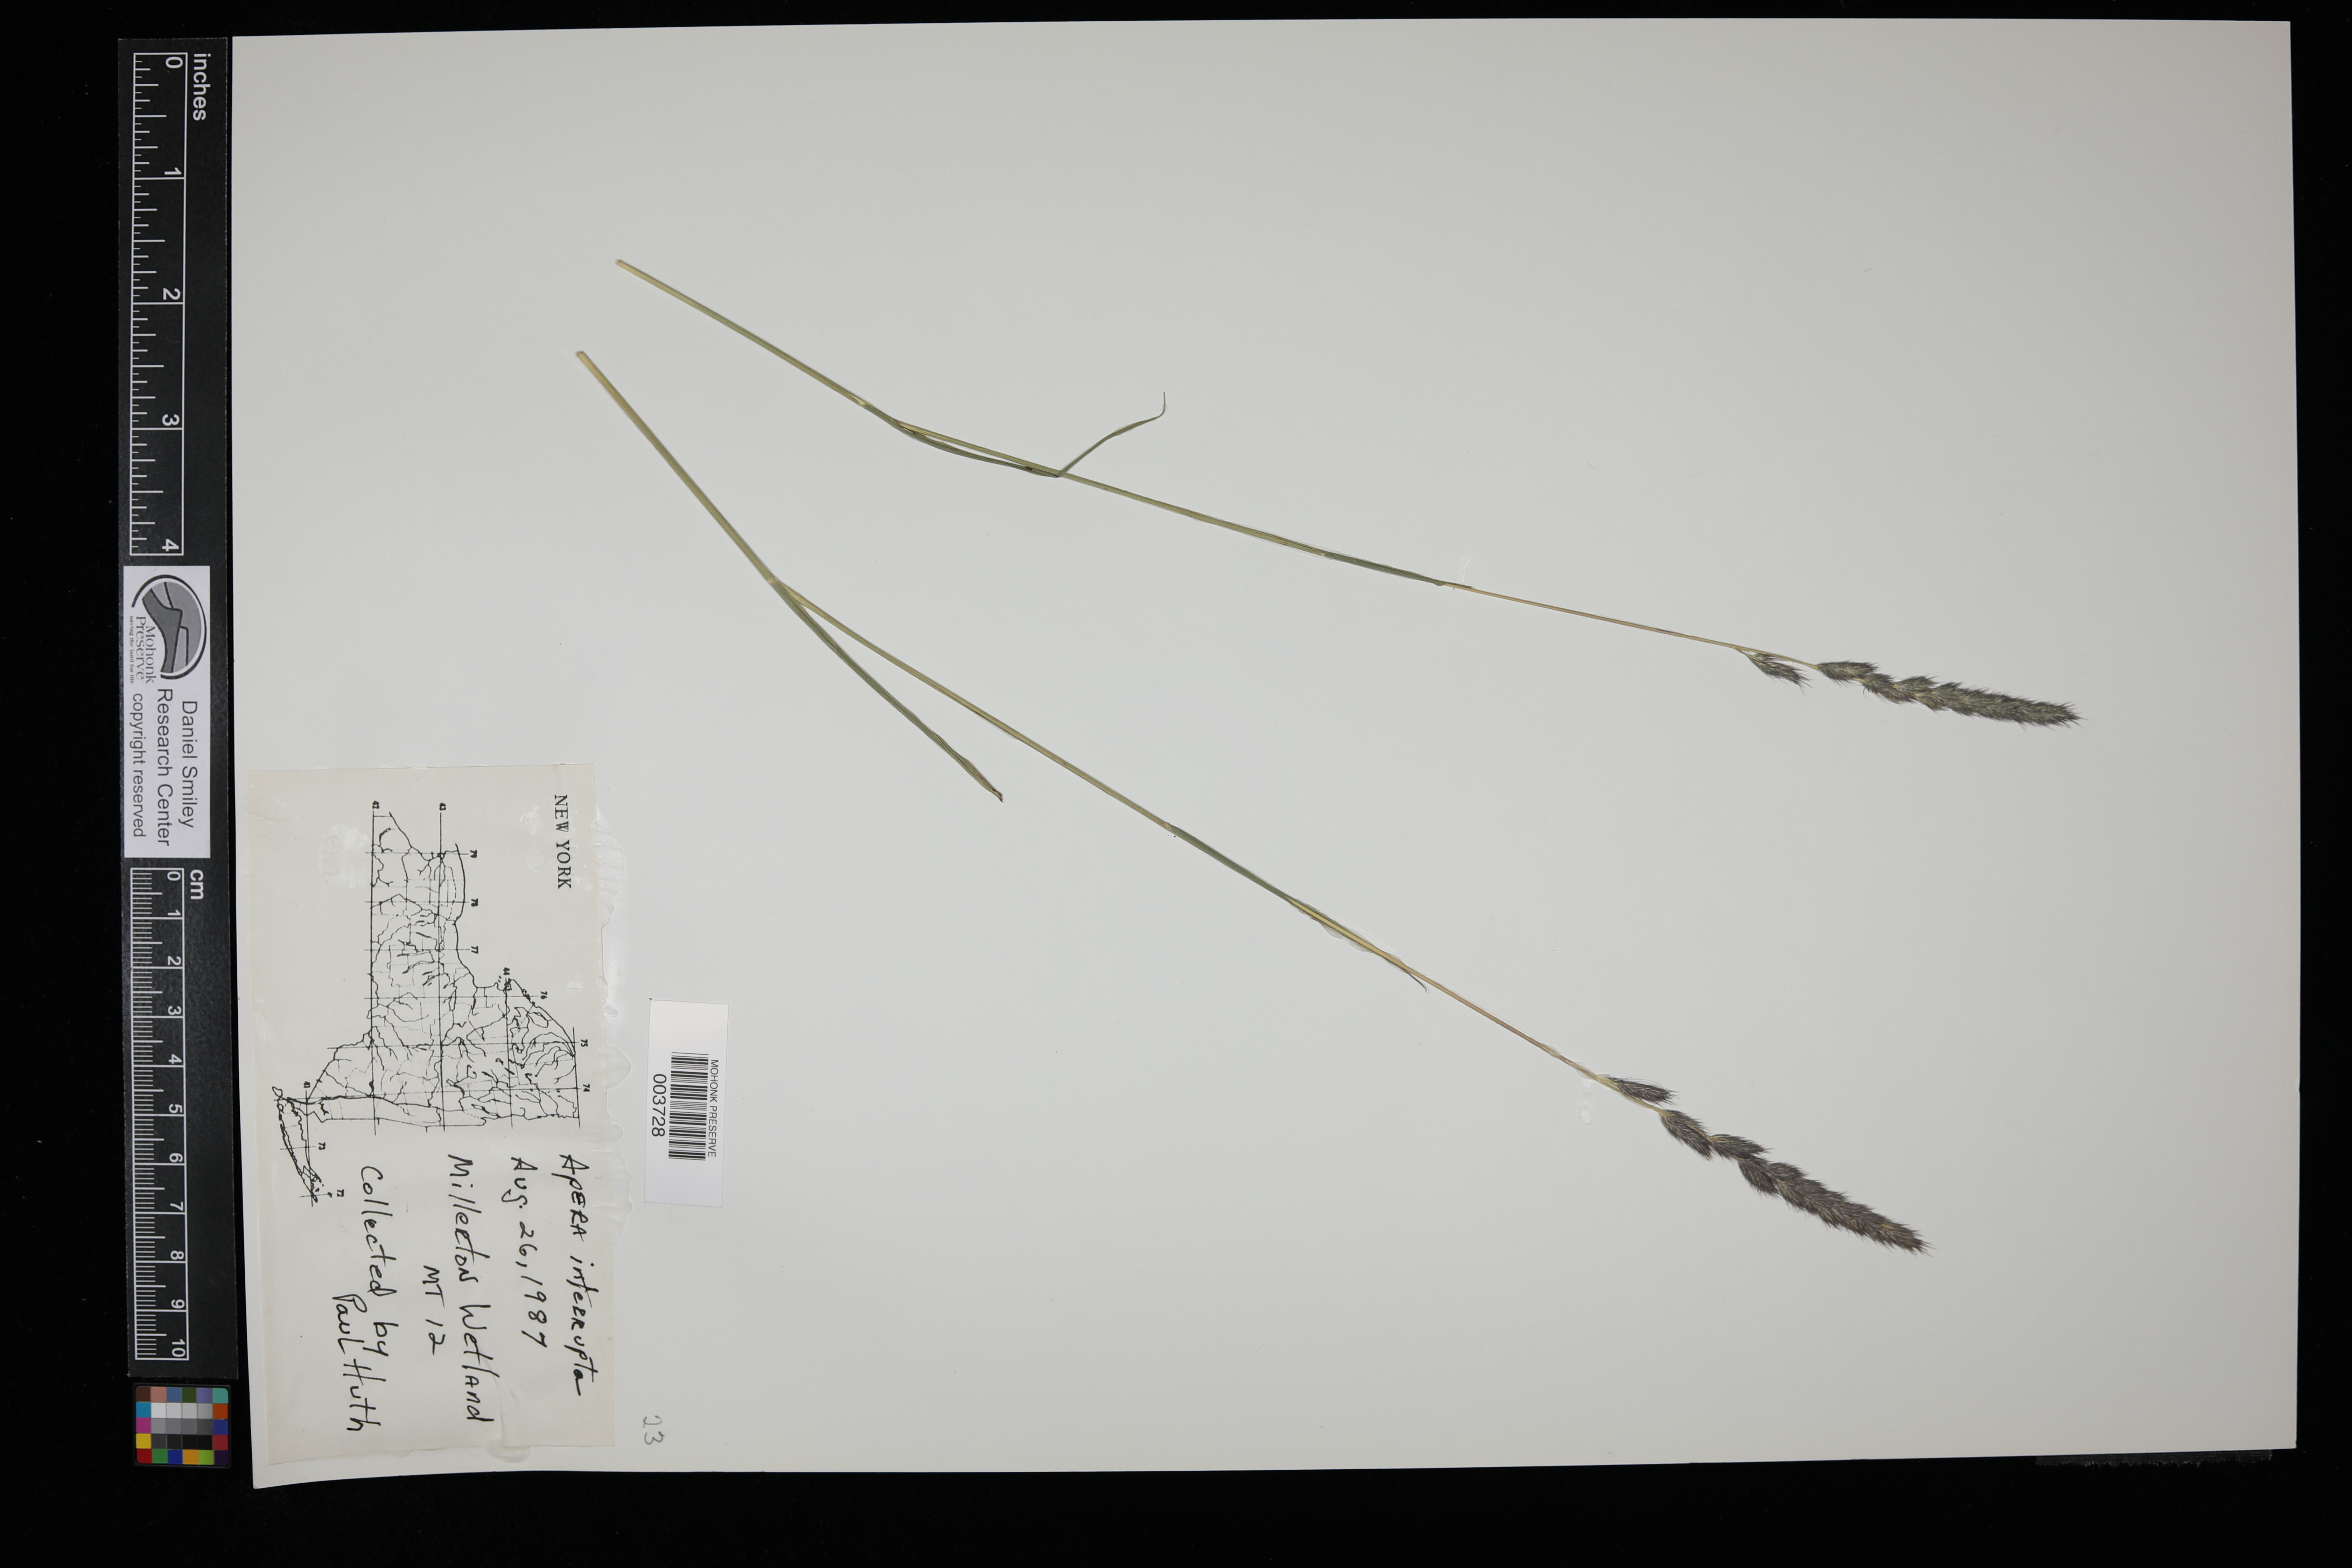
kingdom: Plantae
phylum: Tracheophyta
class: Liliopsida
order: Poales
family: Poaceae
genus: Apera
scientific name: Apera interrupta
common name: Dense silky-bent
